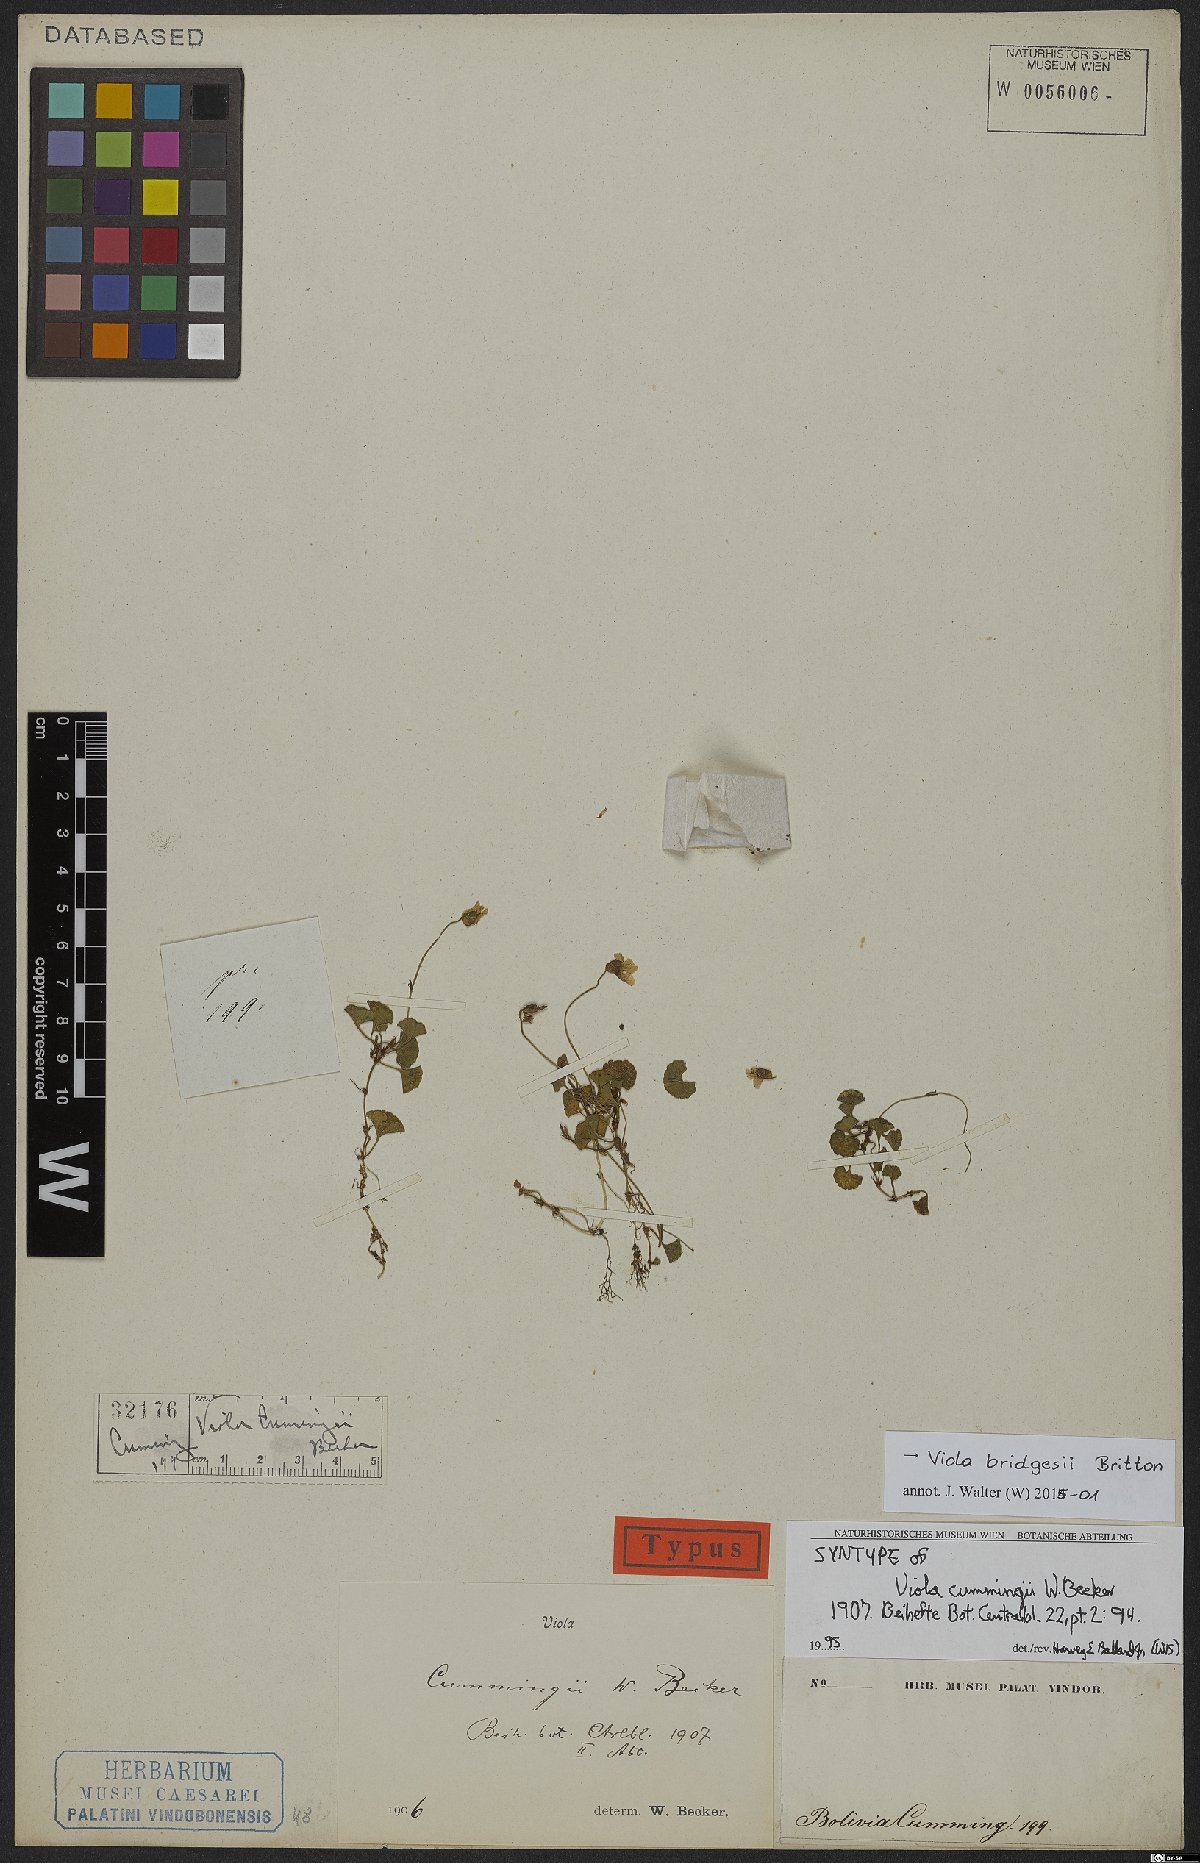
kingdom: Plantae
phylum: Tracheophyta
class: Magnoliopsida
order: Malpighiales
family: Violaceae
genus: Viola
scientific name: Viola bridgesii
